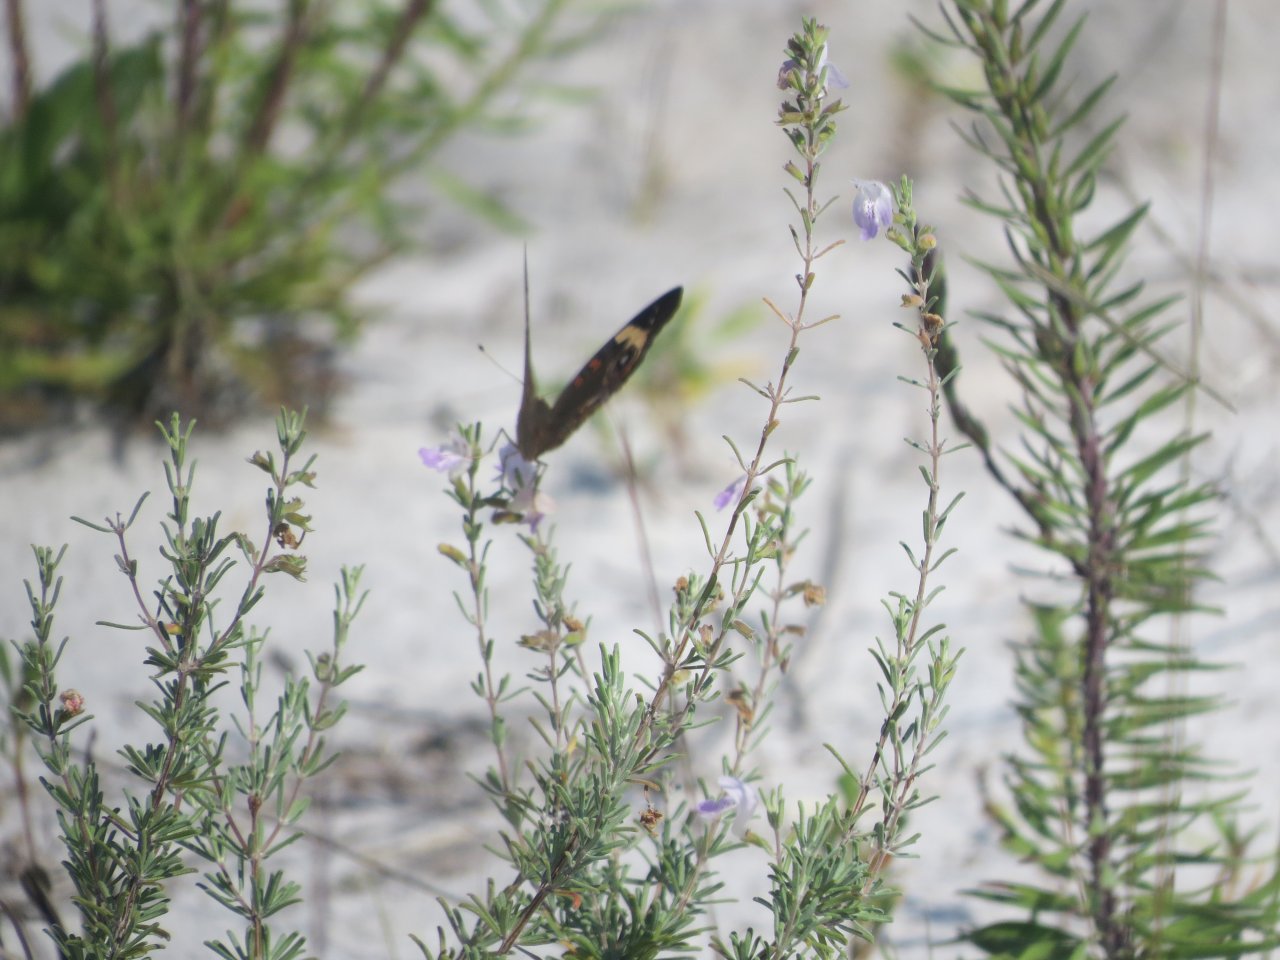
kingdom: Animalia
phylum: Arthropoda
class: Insecta
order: Lepidoptera
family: Nymphalidae
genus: Junonia
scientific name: Junonia coenia
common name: Common Buckeye
